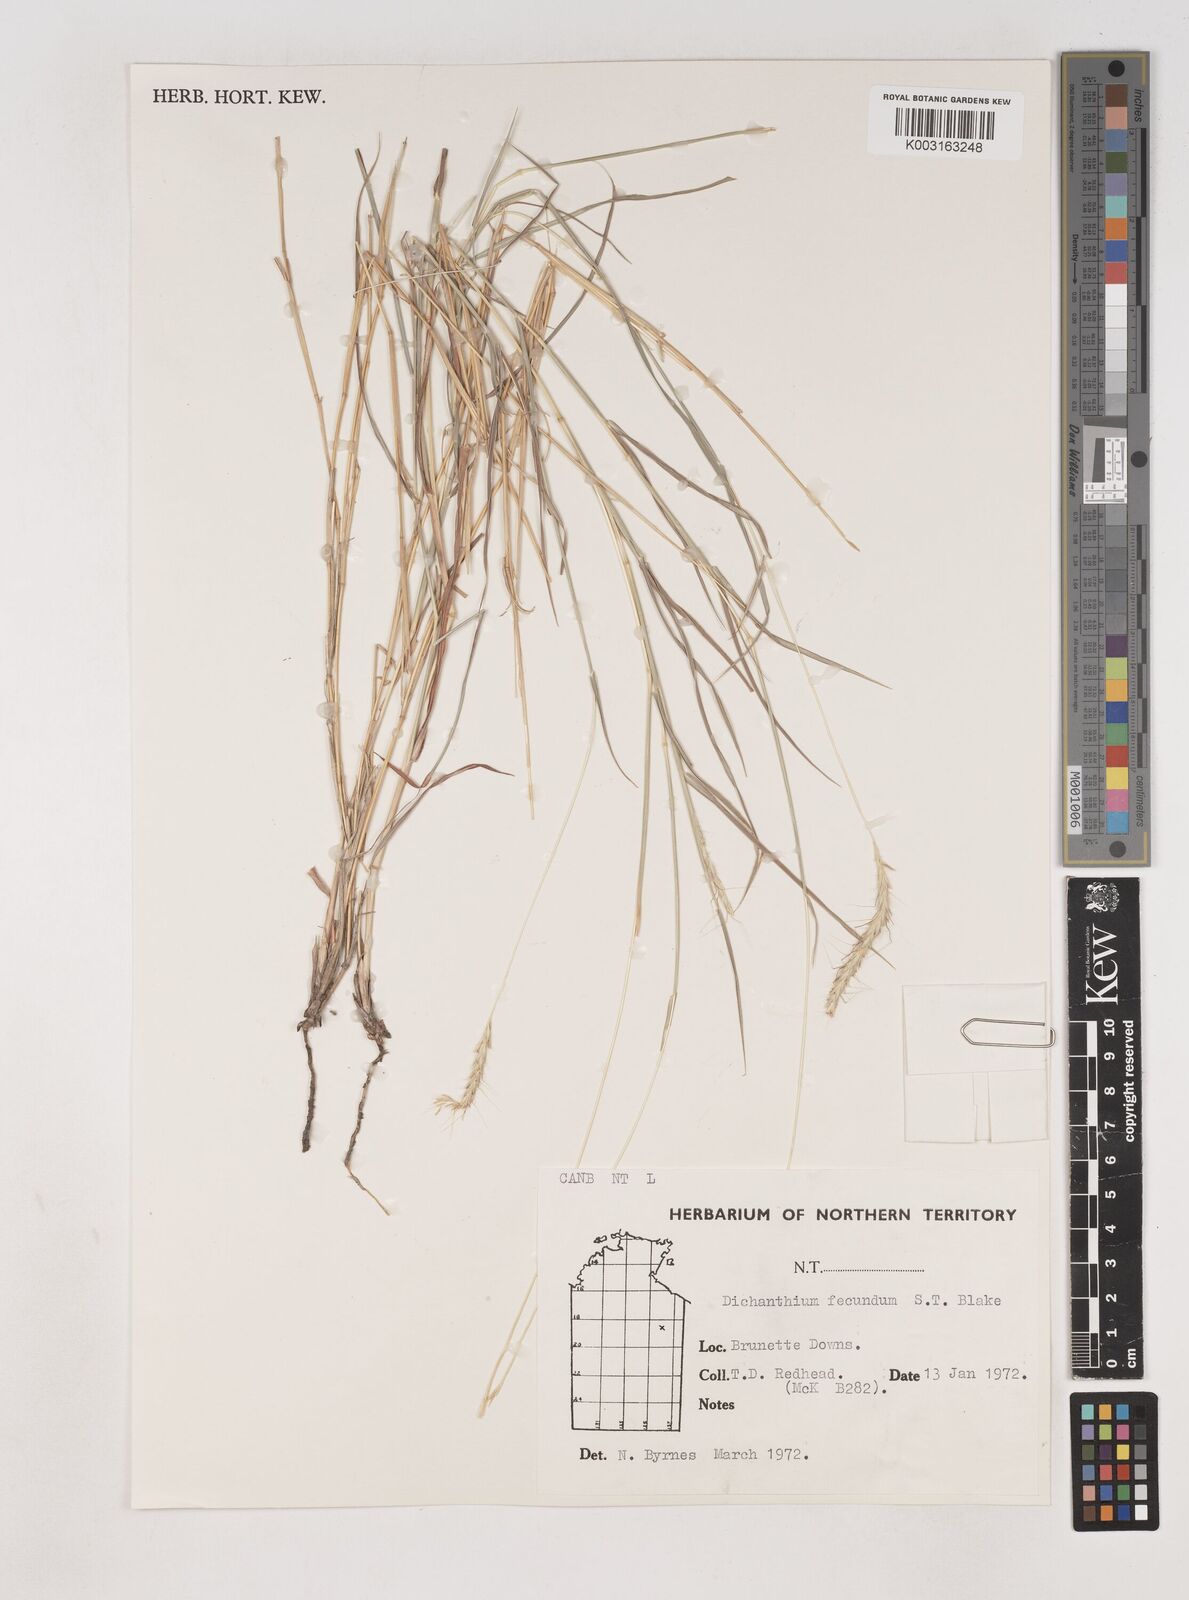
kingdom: Plantae
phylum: Tracheophyta
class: Liliopsida
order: Poales
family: Poaceae
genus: Dichanthium
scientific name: Dichanthium fecundum
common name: Bundle-bundle
